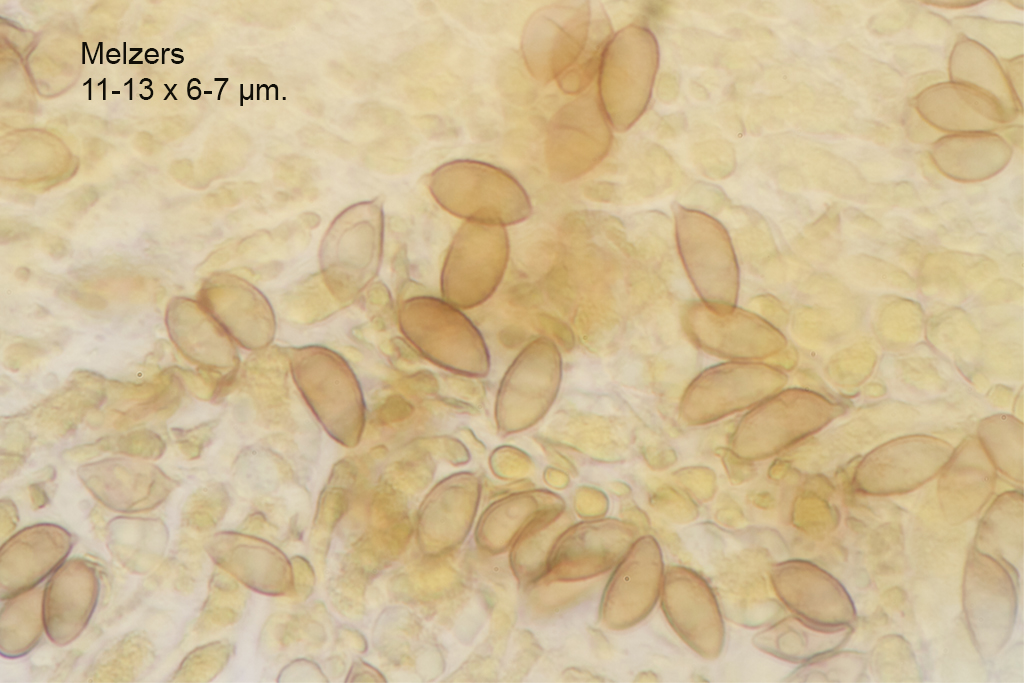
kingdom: Fungi
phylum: Basidiomycota
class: Agaricomycetes
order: Agaricales
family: Hymenogastraceae
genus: Hebeloma
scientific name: Hebeloma paludicola
